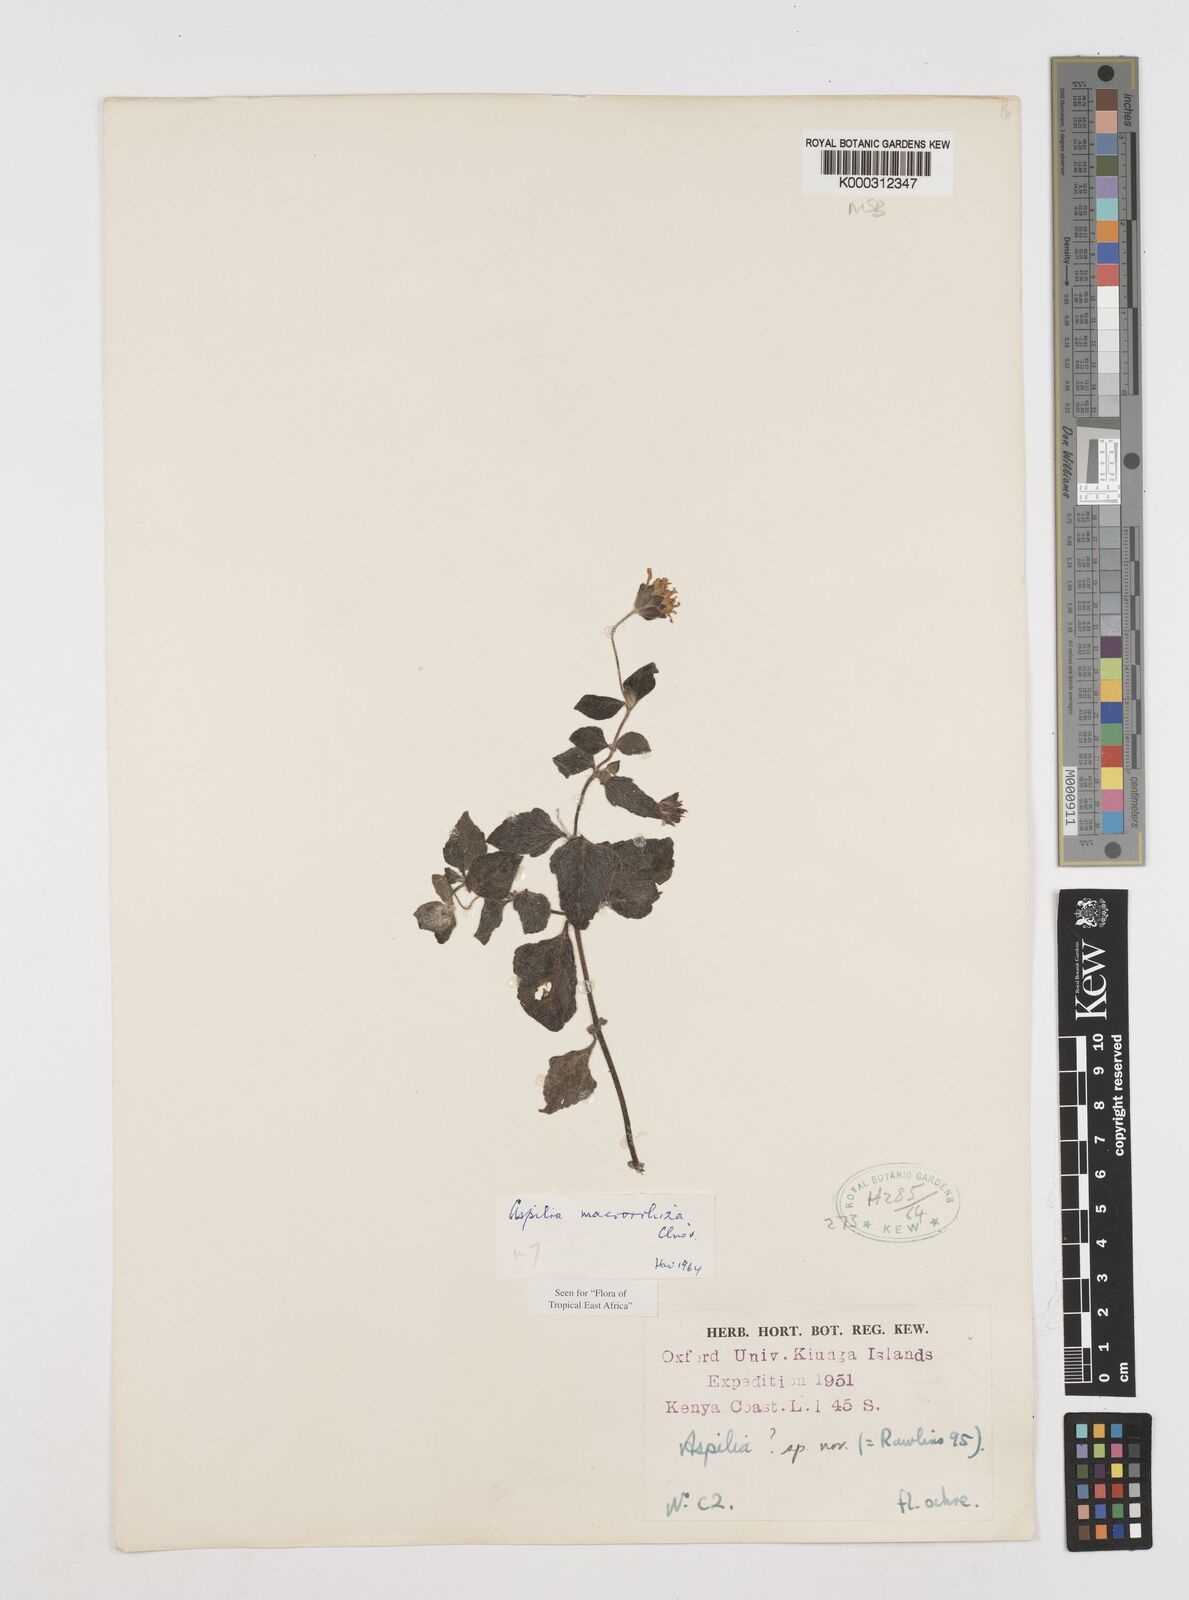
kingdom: Plantae
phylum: Tracheophyta
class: Magnoliopsida
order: Asterales
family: Asteraceae
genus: Aspilia
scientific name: Aspilia macrorrhiza
